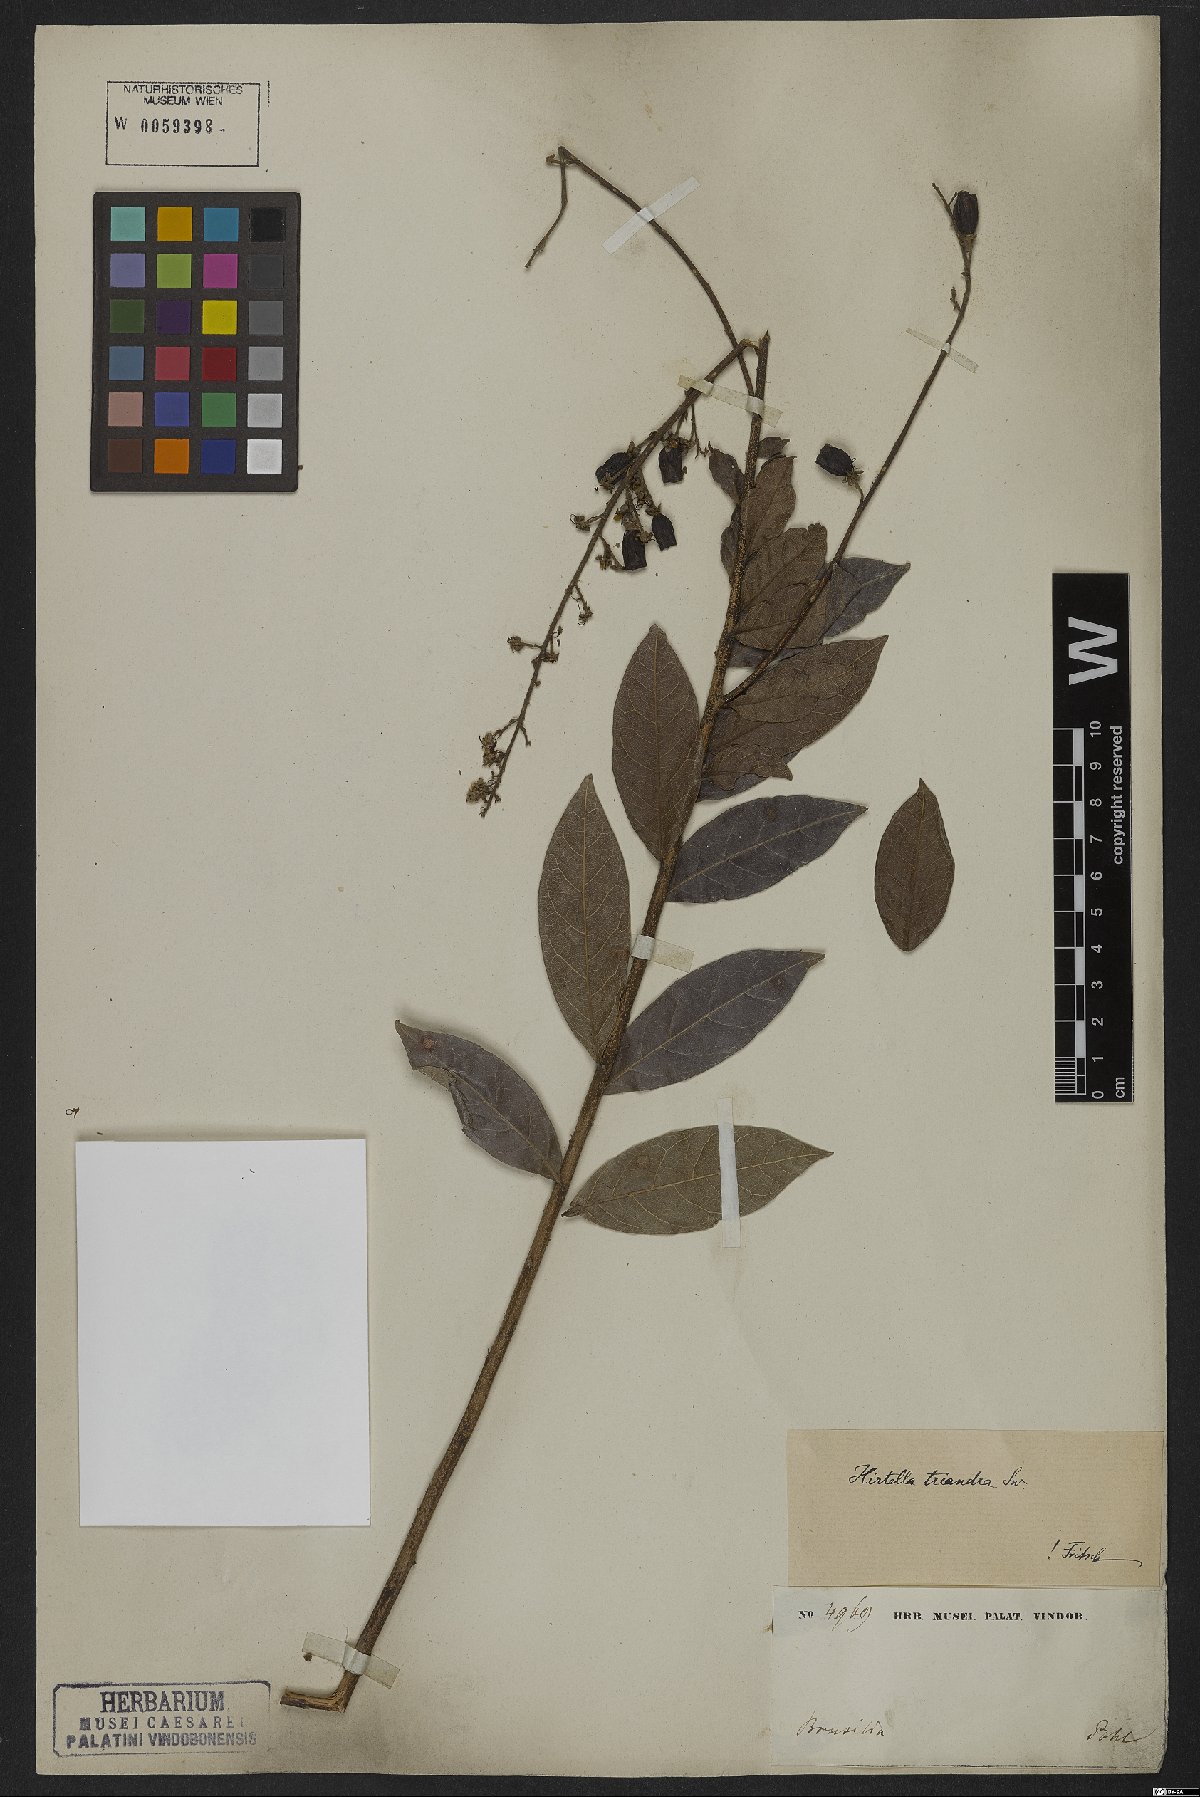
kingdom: Plantae
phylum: Tracheophyta
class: Magnoliopsida
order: Malpighiales
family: Chrysobalanaceae
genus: Hirtella
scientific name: Hirtella triandra
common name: Hairy plum
